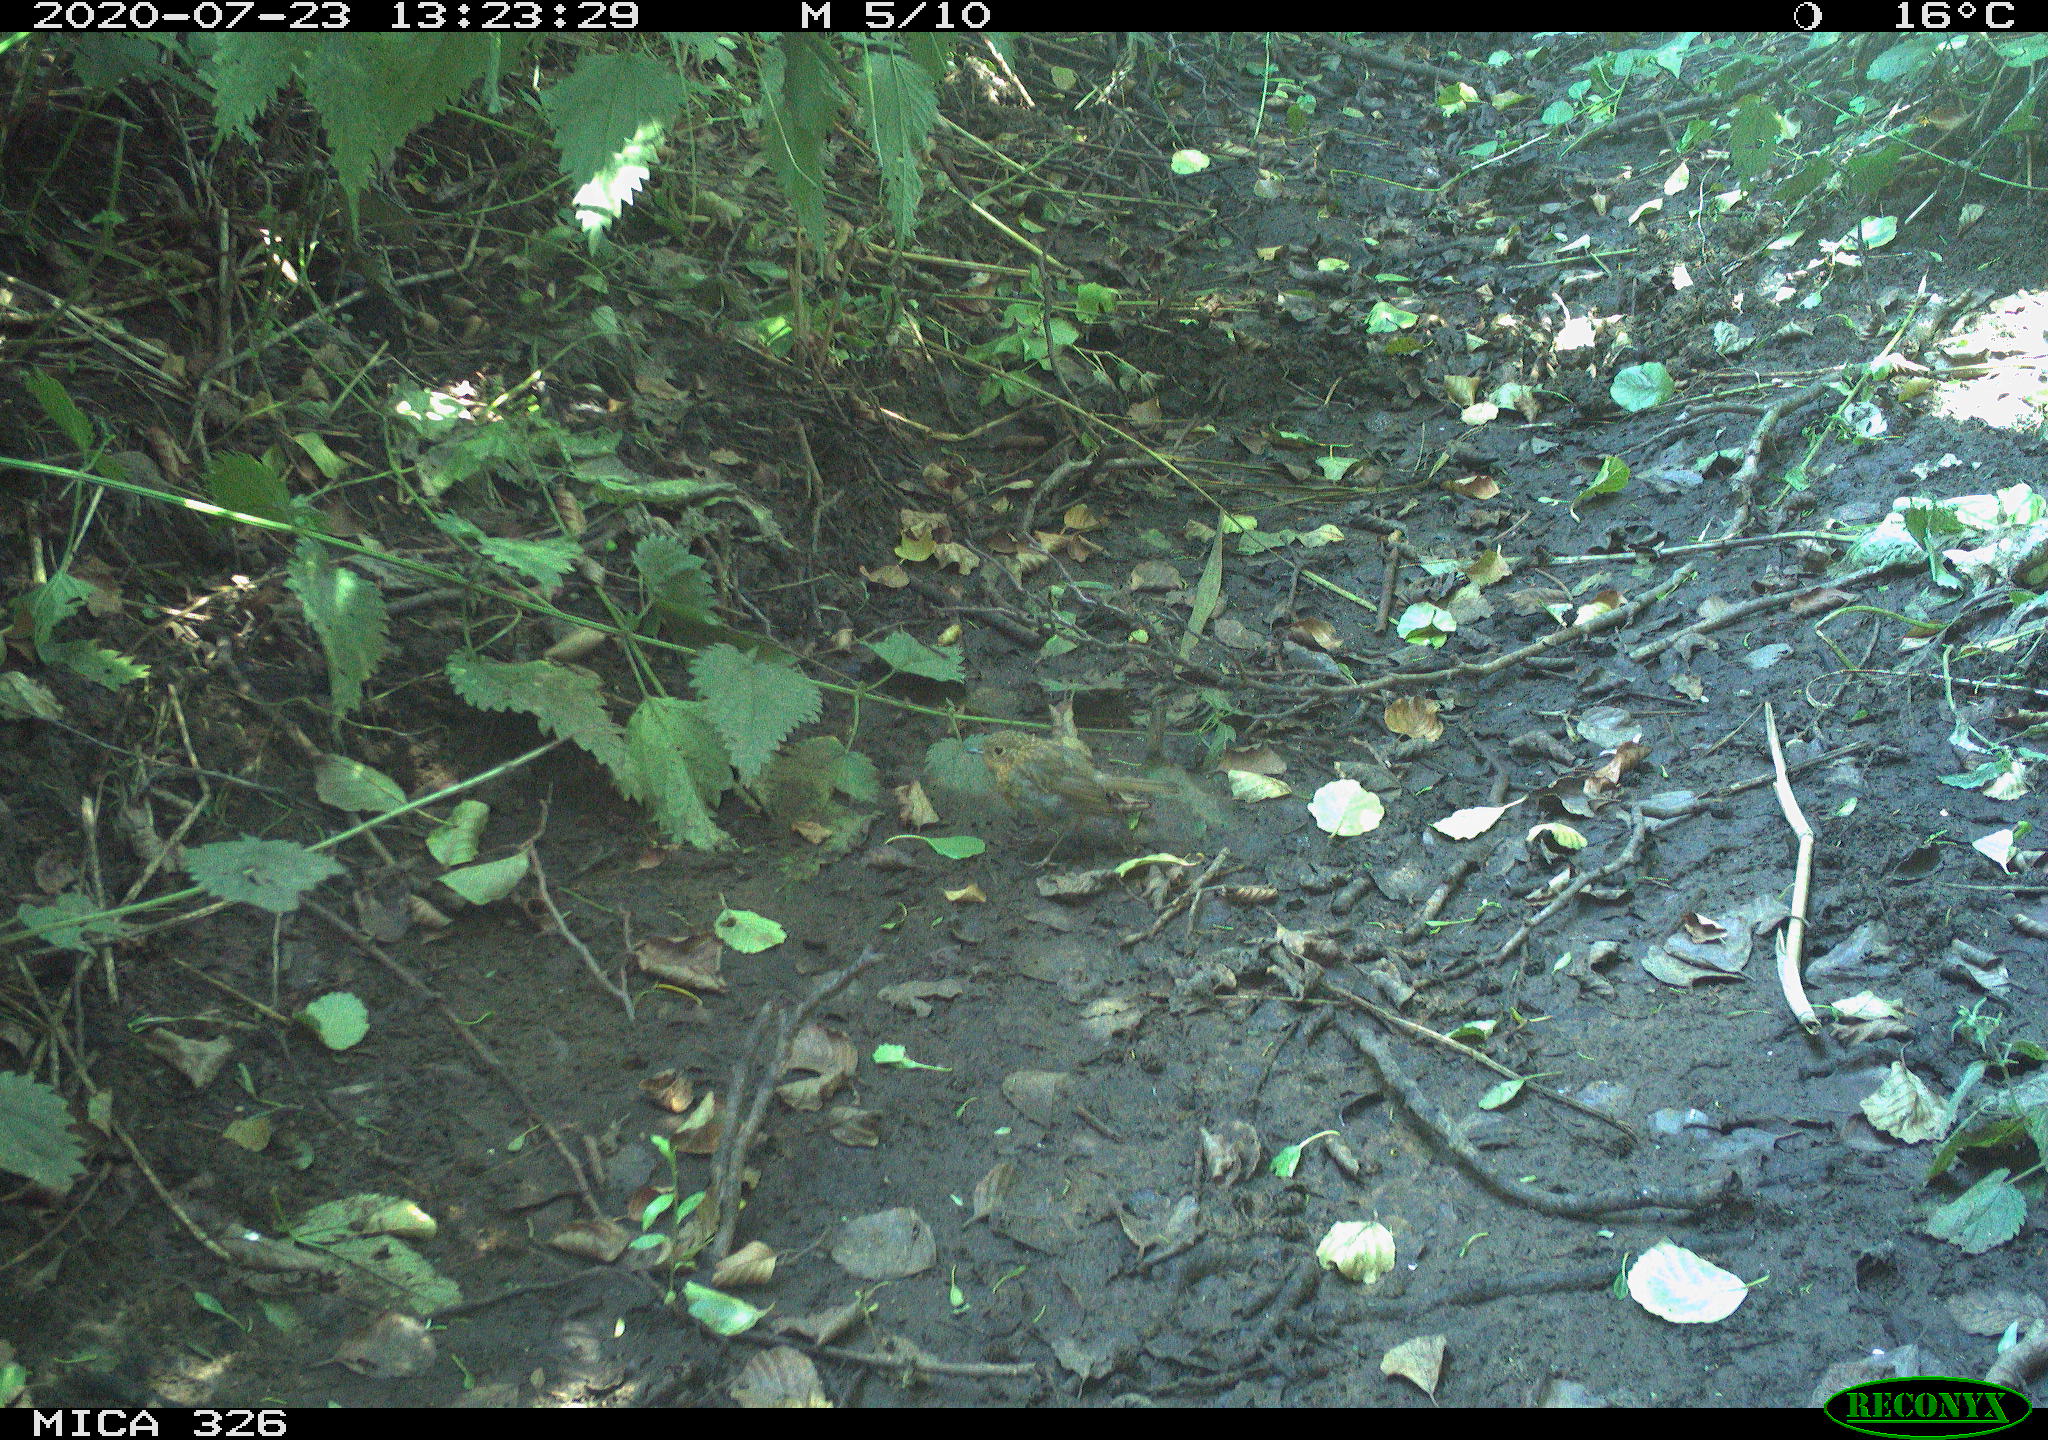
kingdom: Animalia
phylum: Chordata
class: Aves
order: Passeriformes
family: Muscicapidae
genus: Erithacus
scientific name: Erithacus rubecula
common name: European robin
